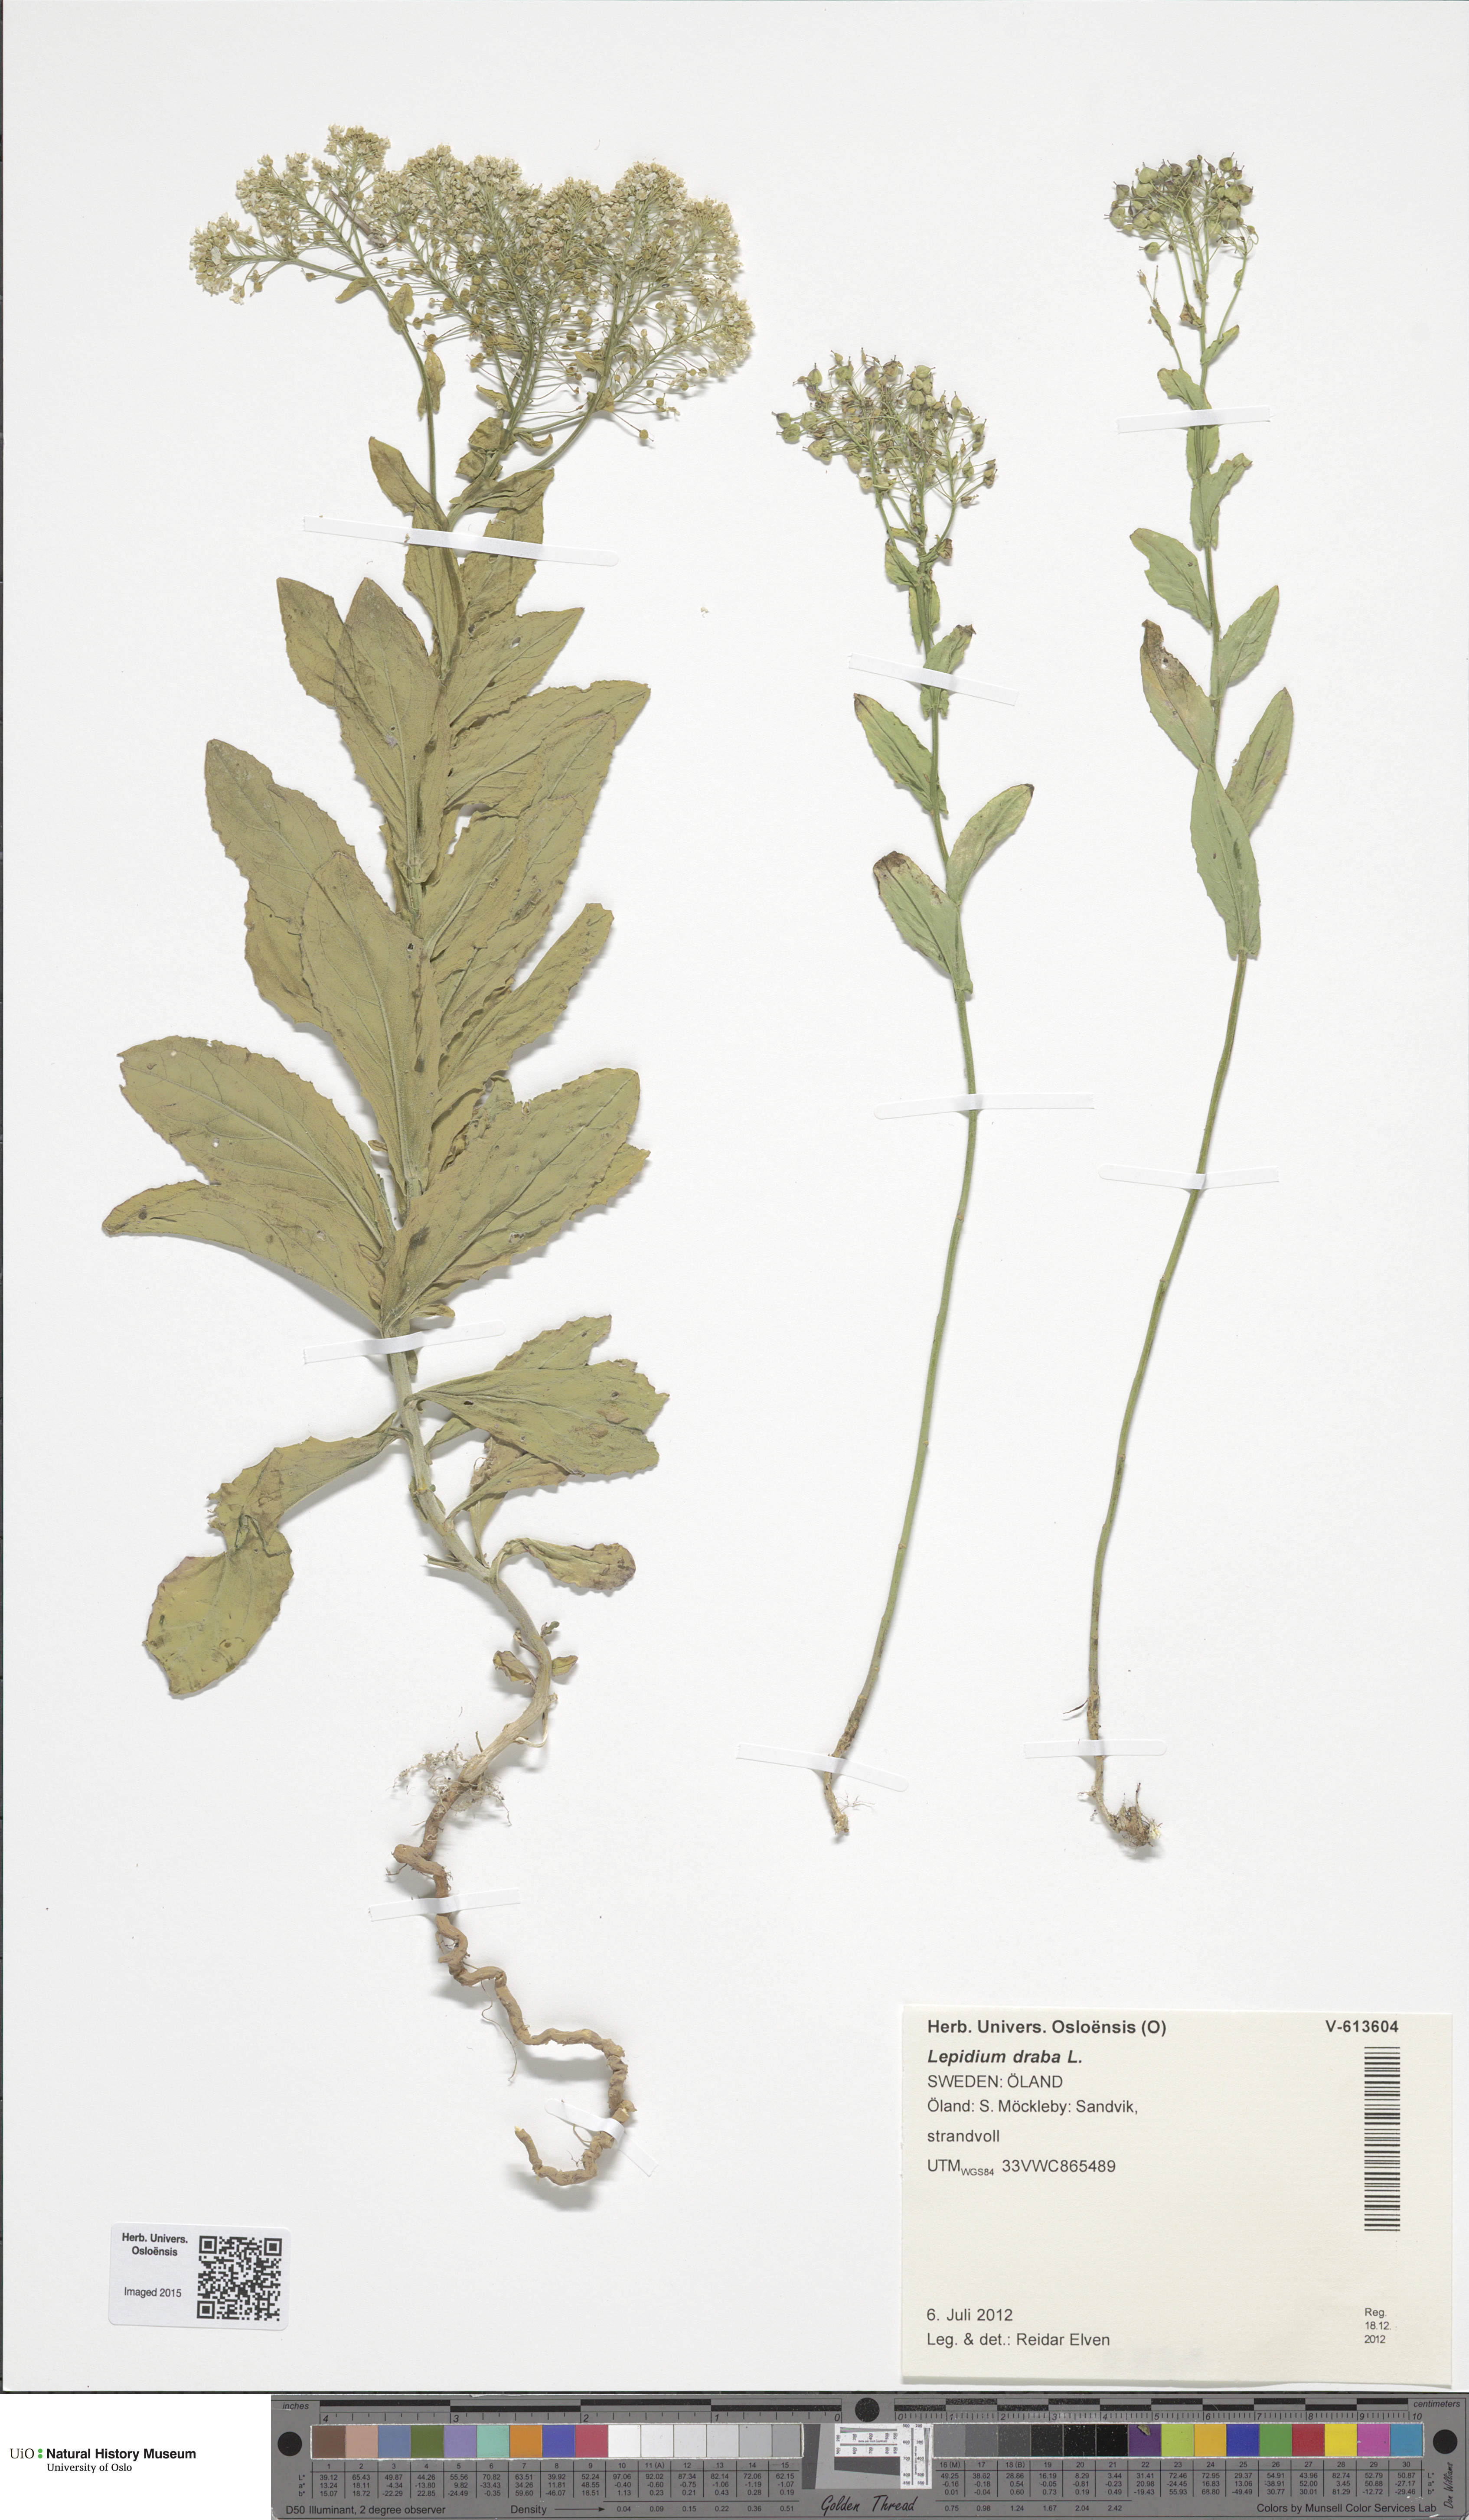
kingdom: Plantae
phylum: Tracheophyta
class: Magnoliopsida
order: Brassicales
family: Brassicaceae
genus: Lepidium
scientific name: Lepidium draba
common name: Hoary cress
